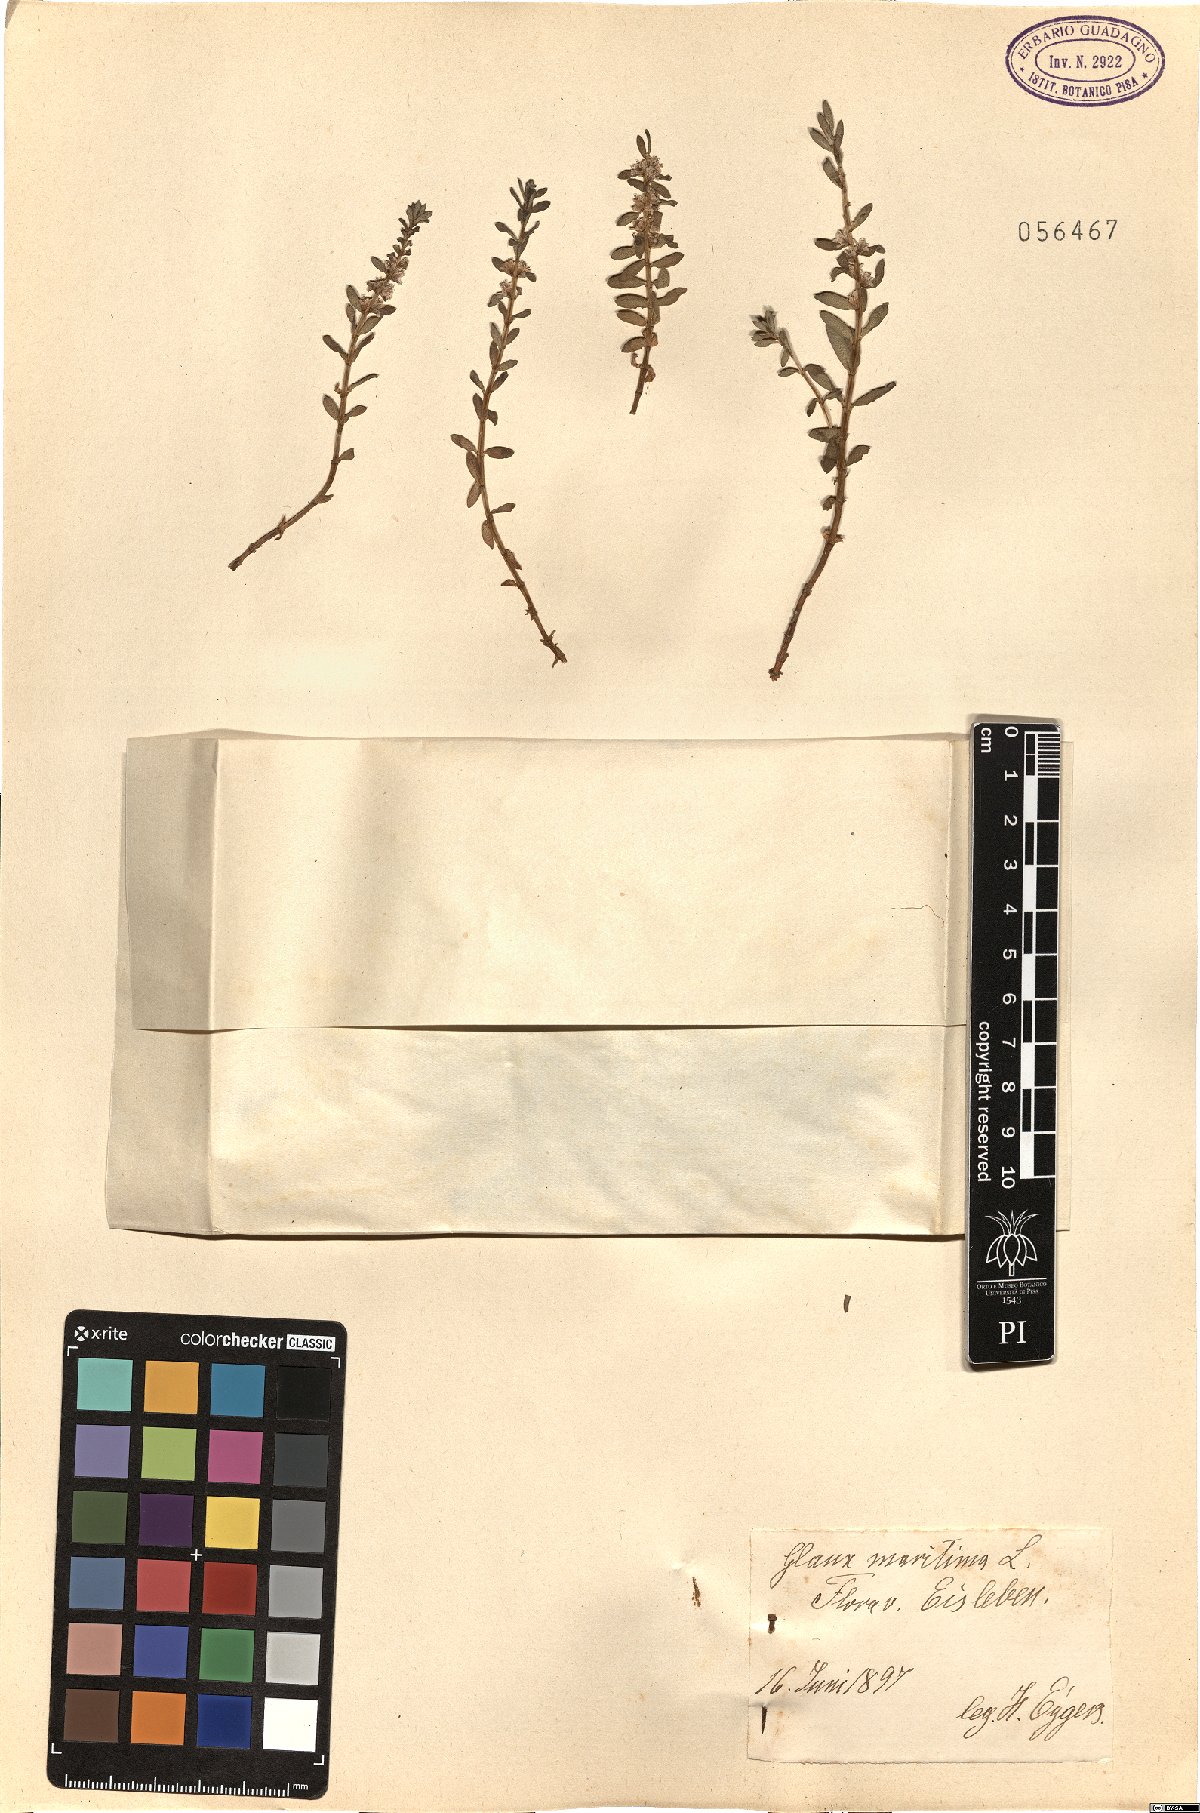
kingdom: Plantae
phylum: Tracheophyta
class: Magnoliopsida
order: Ericales
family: Primulaceae
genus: Lysimachia
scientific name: Lysimachia maritima
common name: Sea milkwort
